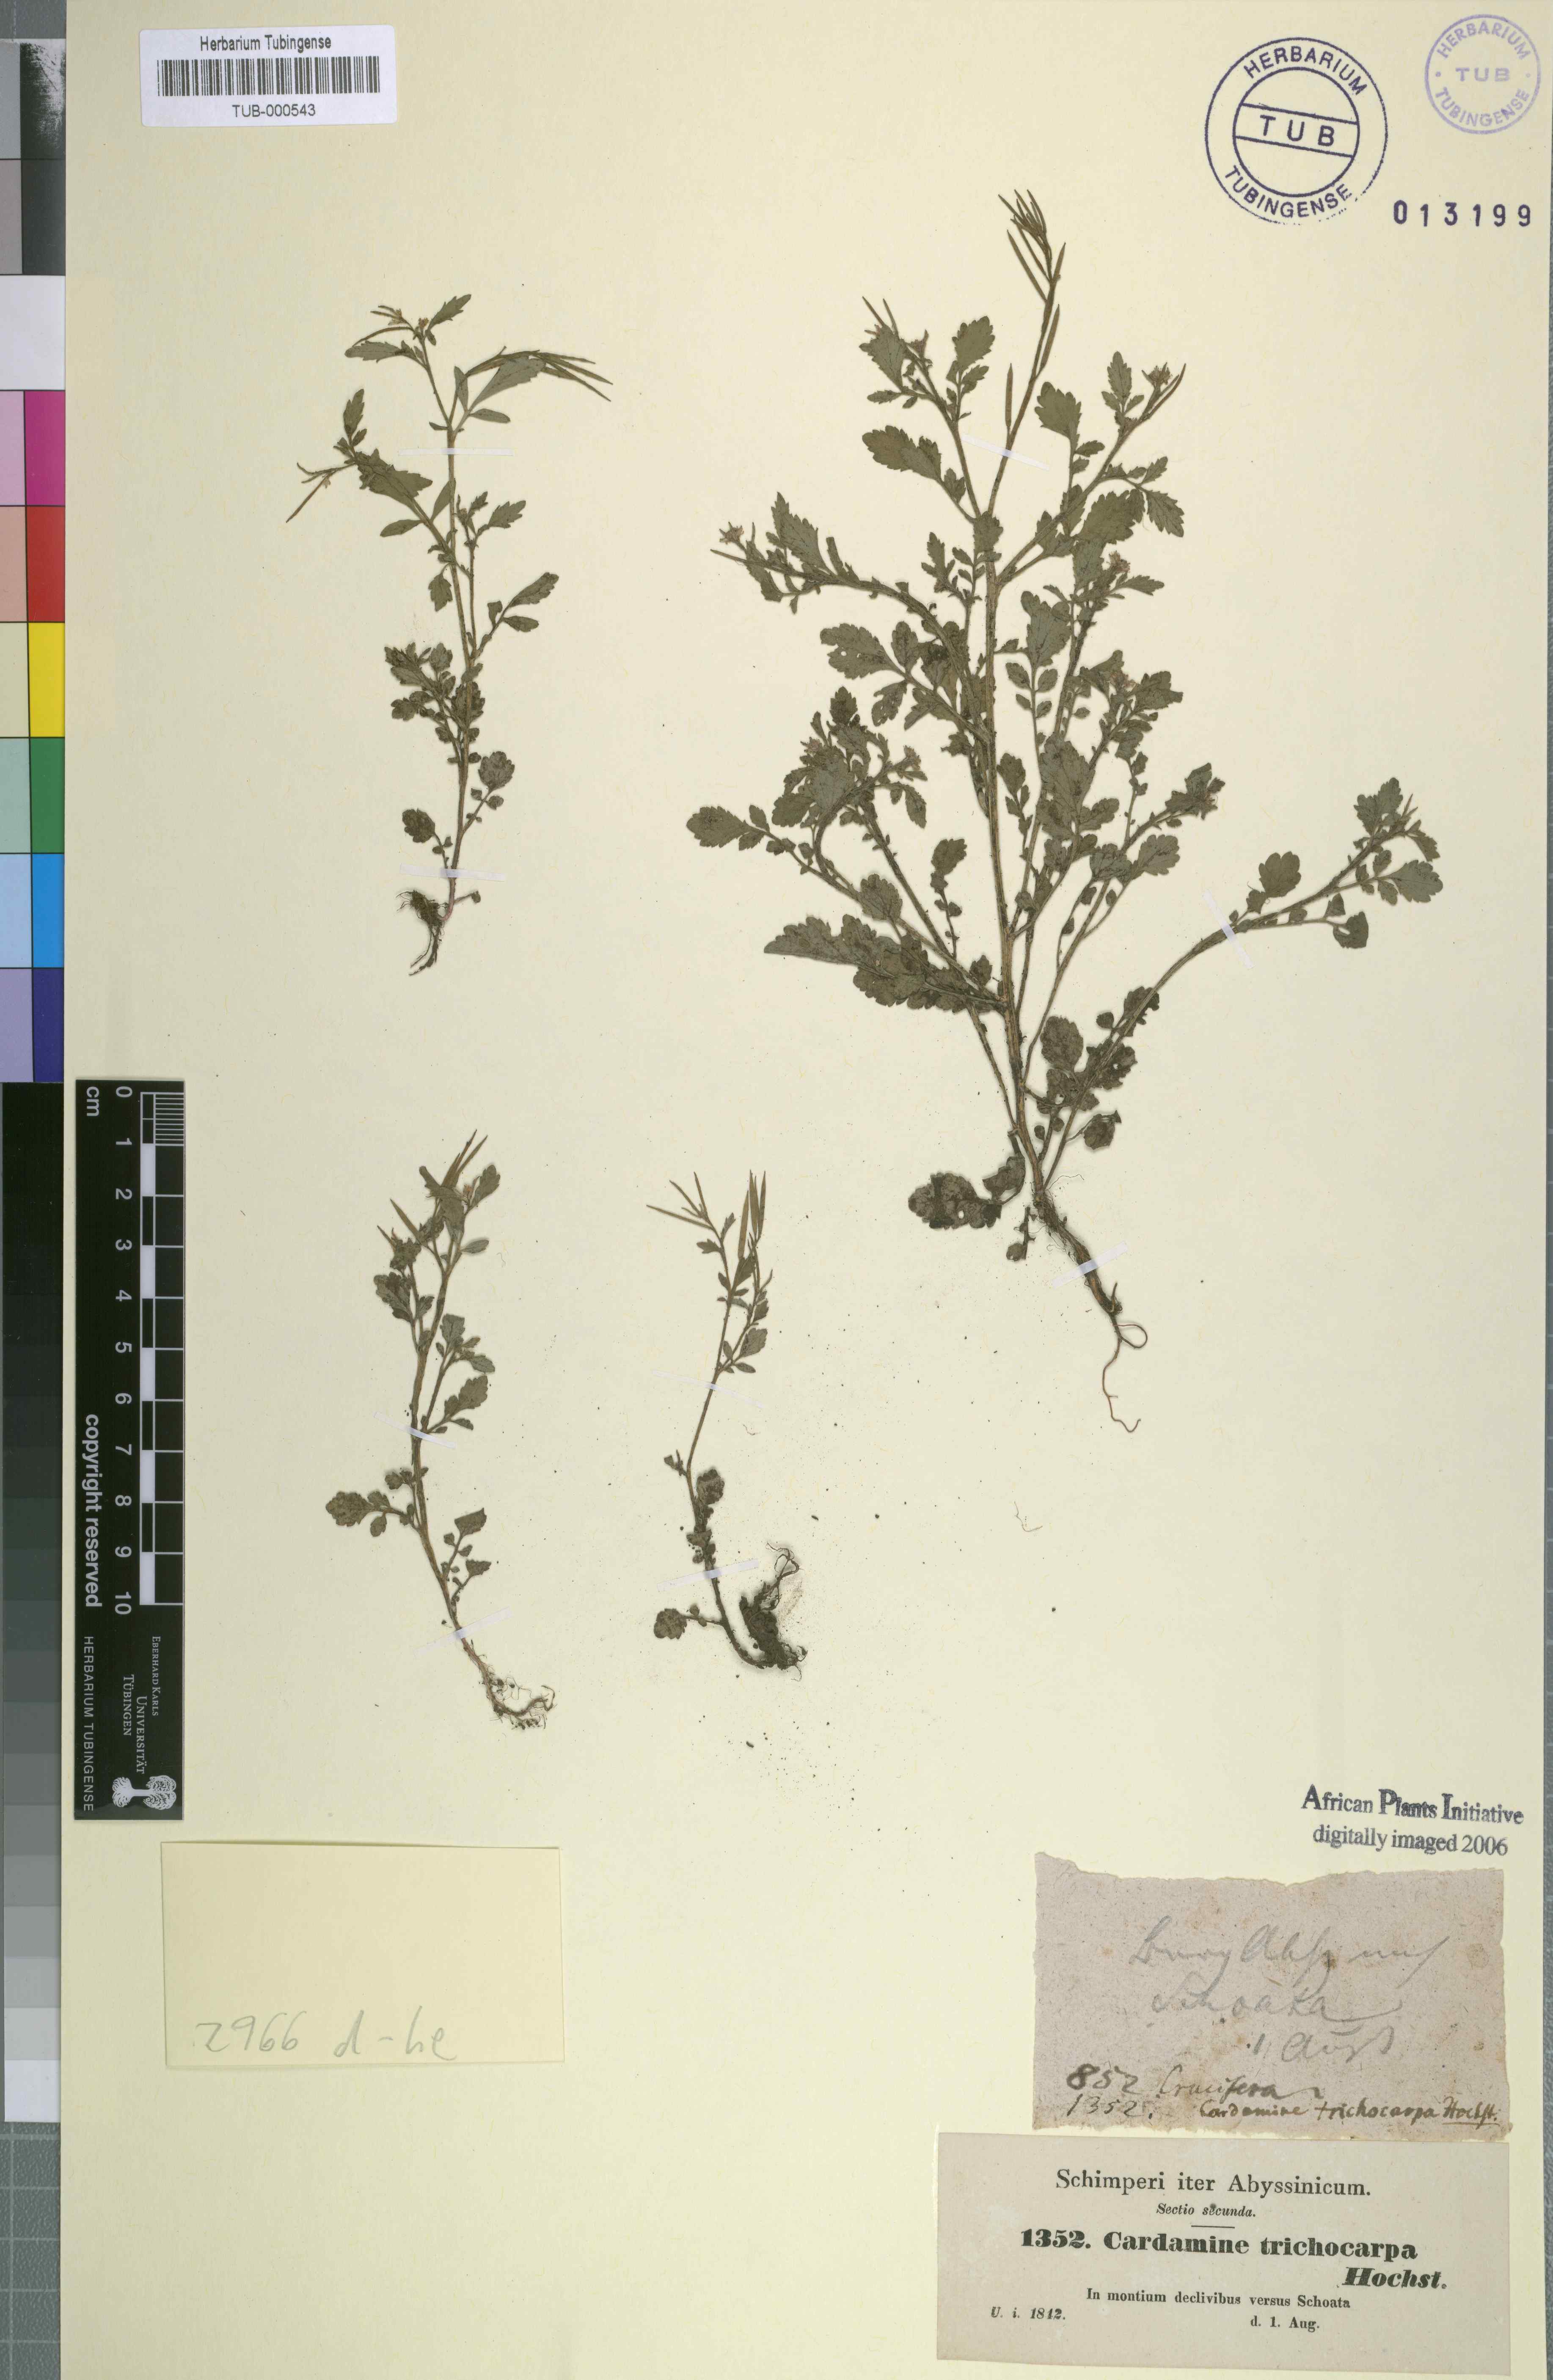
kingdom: Plantae
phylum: Tracheophyta
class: Magnoliopsida
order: Brassicales
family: Brassicaceae
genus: Cardamine
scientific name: Cardamine graeca
